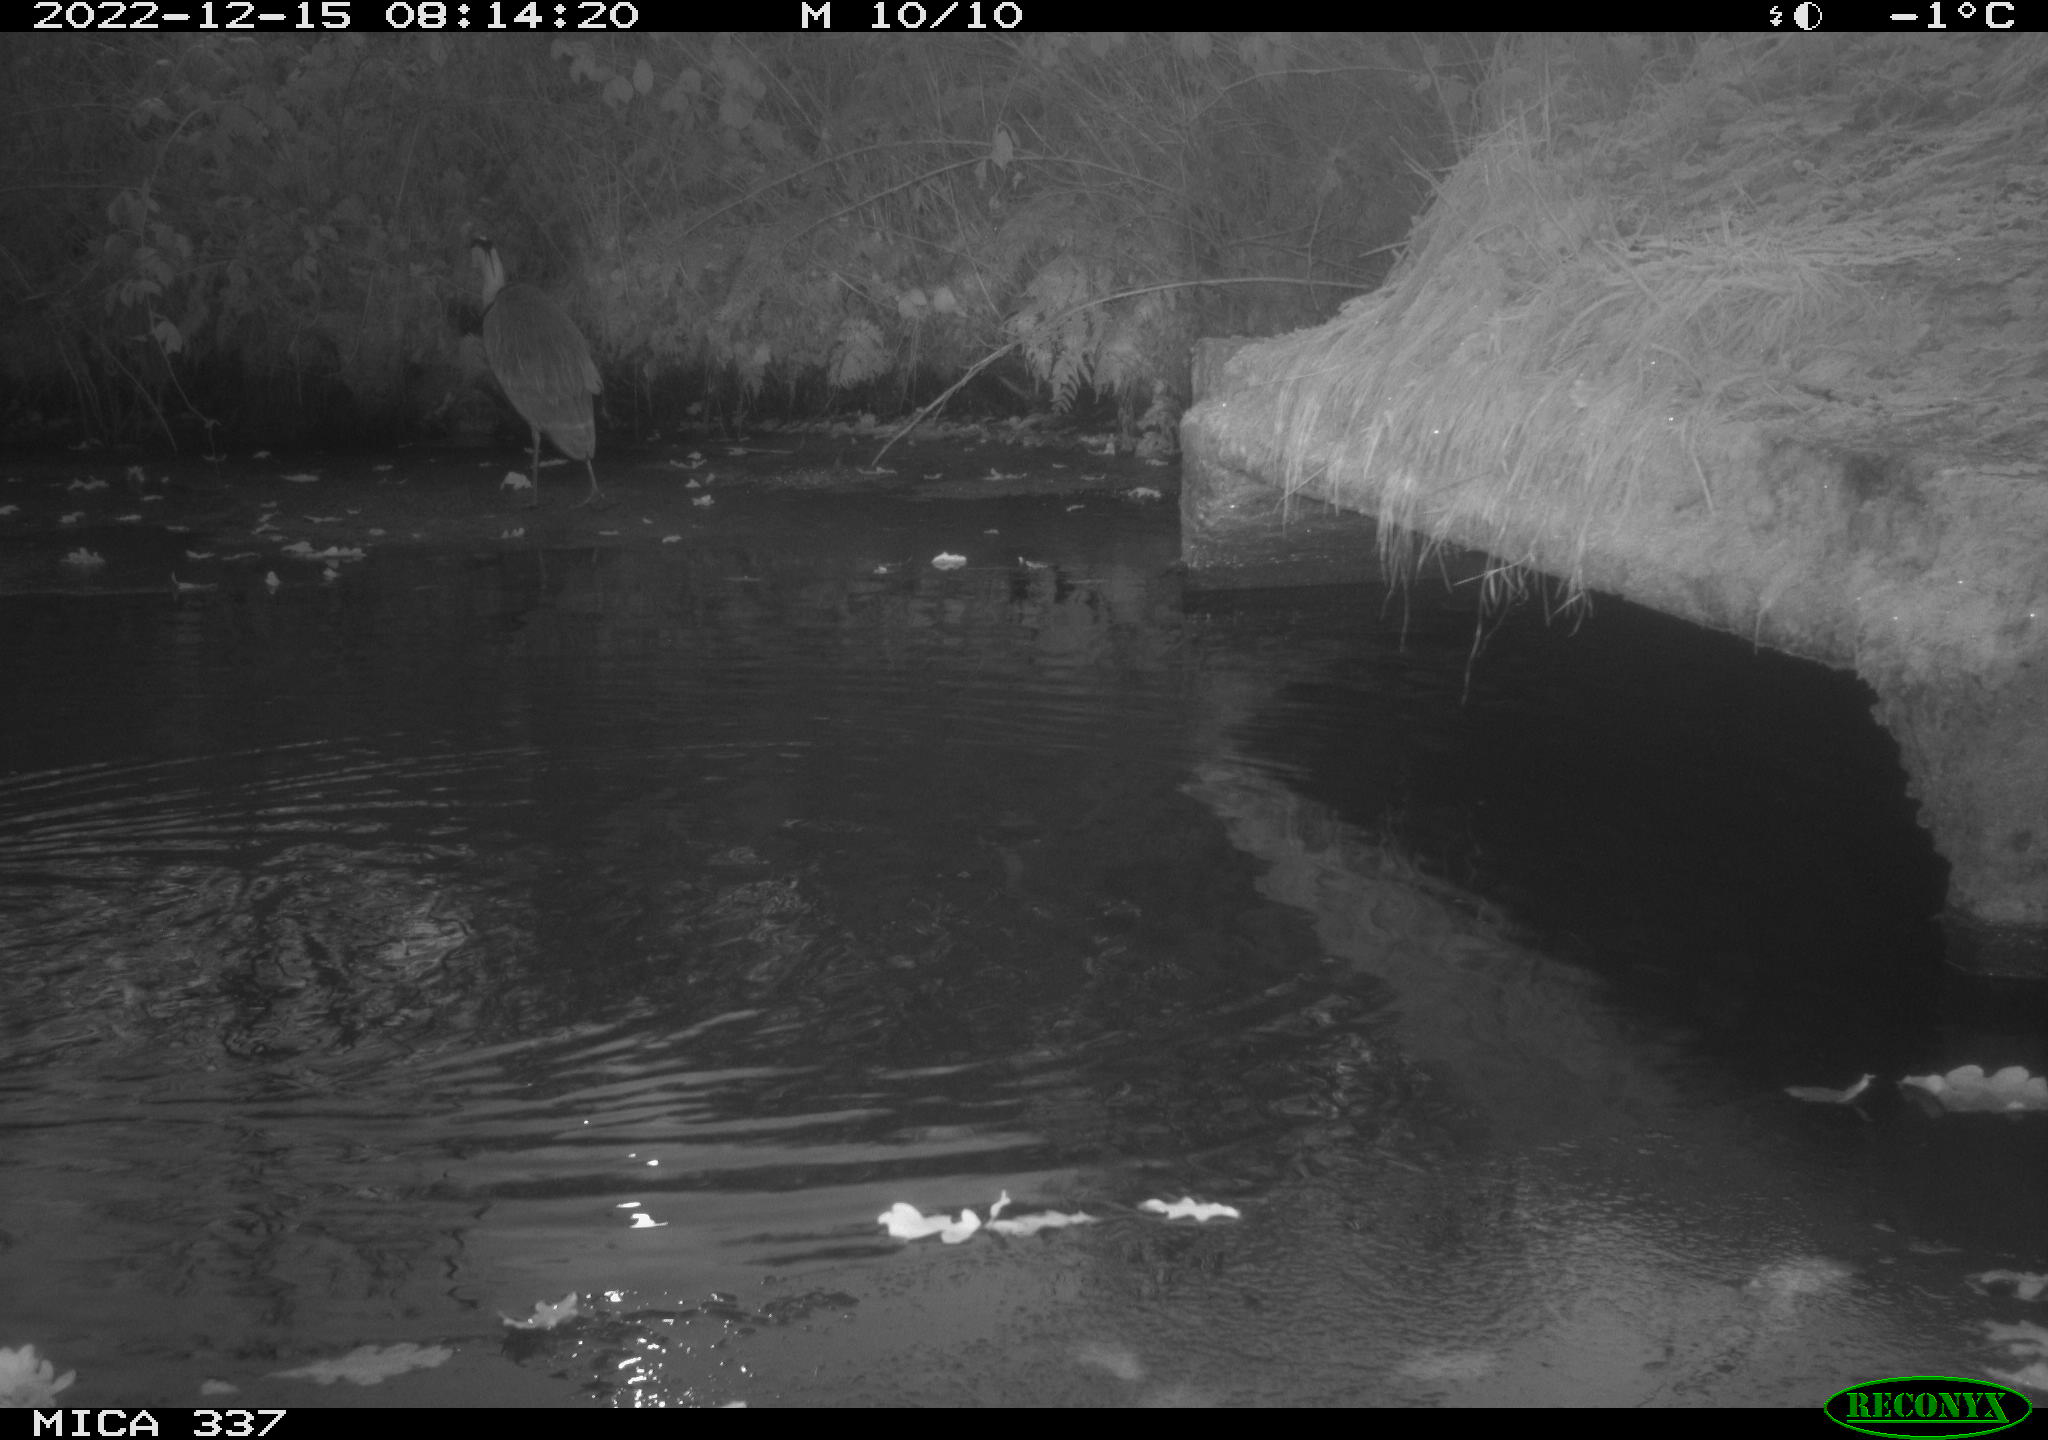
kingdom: Animalia
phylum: Chordata
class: Aves
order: Anseriformes
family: Anatidae
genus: Anas
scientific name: Anas
